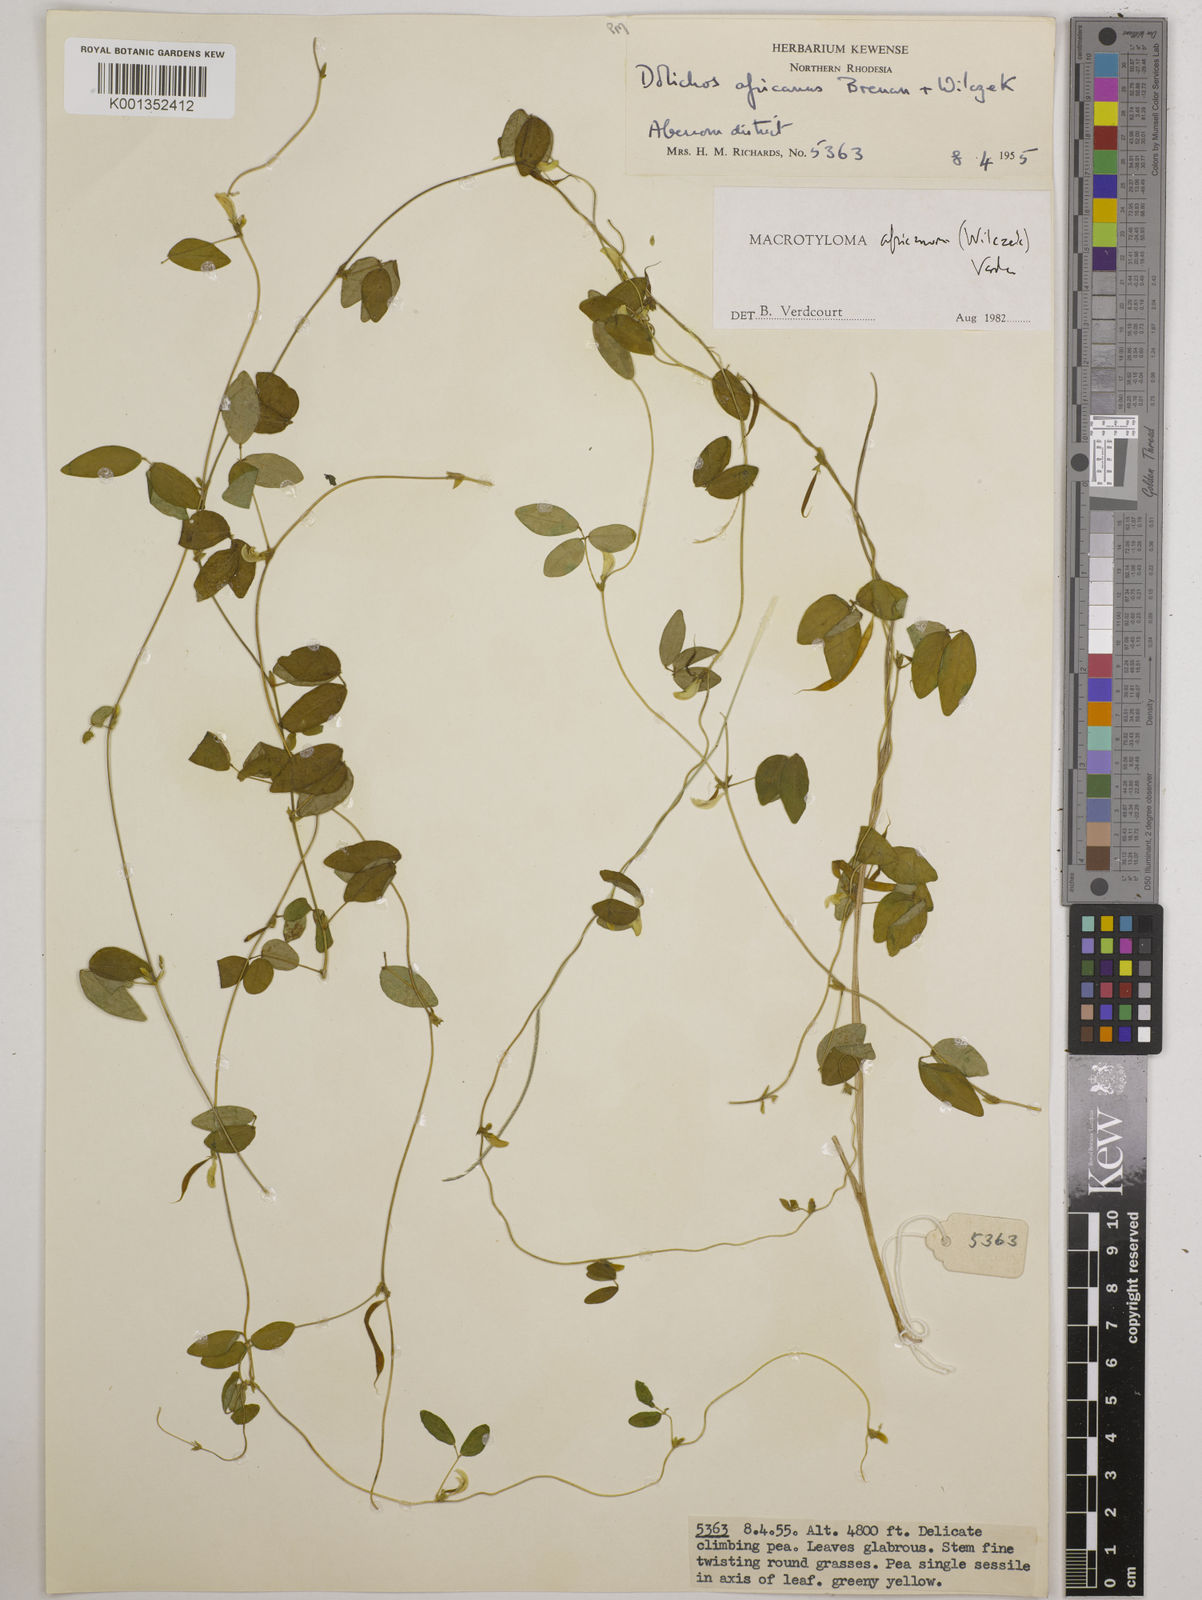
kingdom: Plantae
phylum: Tracheophyta
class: Magnoliopsida
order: Fabales
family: Fabaceae
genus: Macrotyloma
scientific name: Macrotyloma africanum
